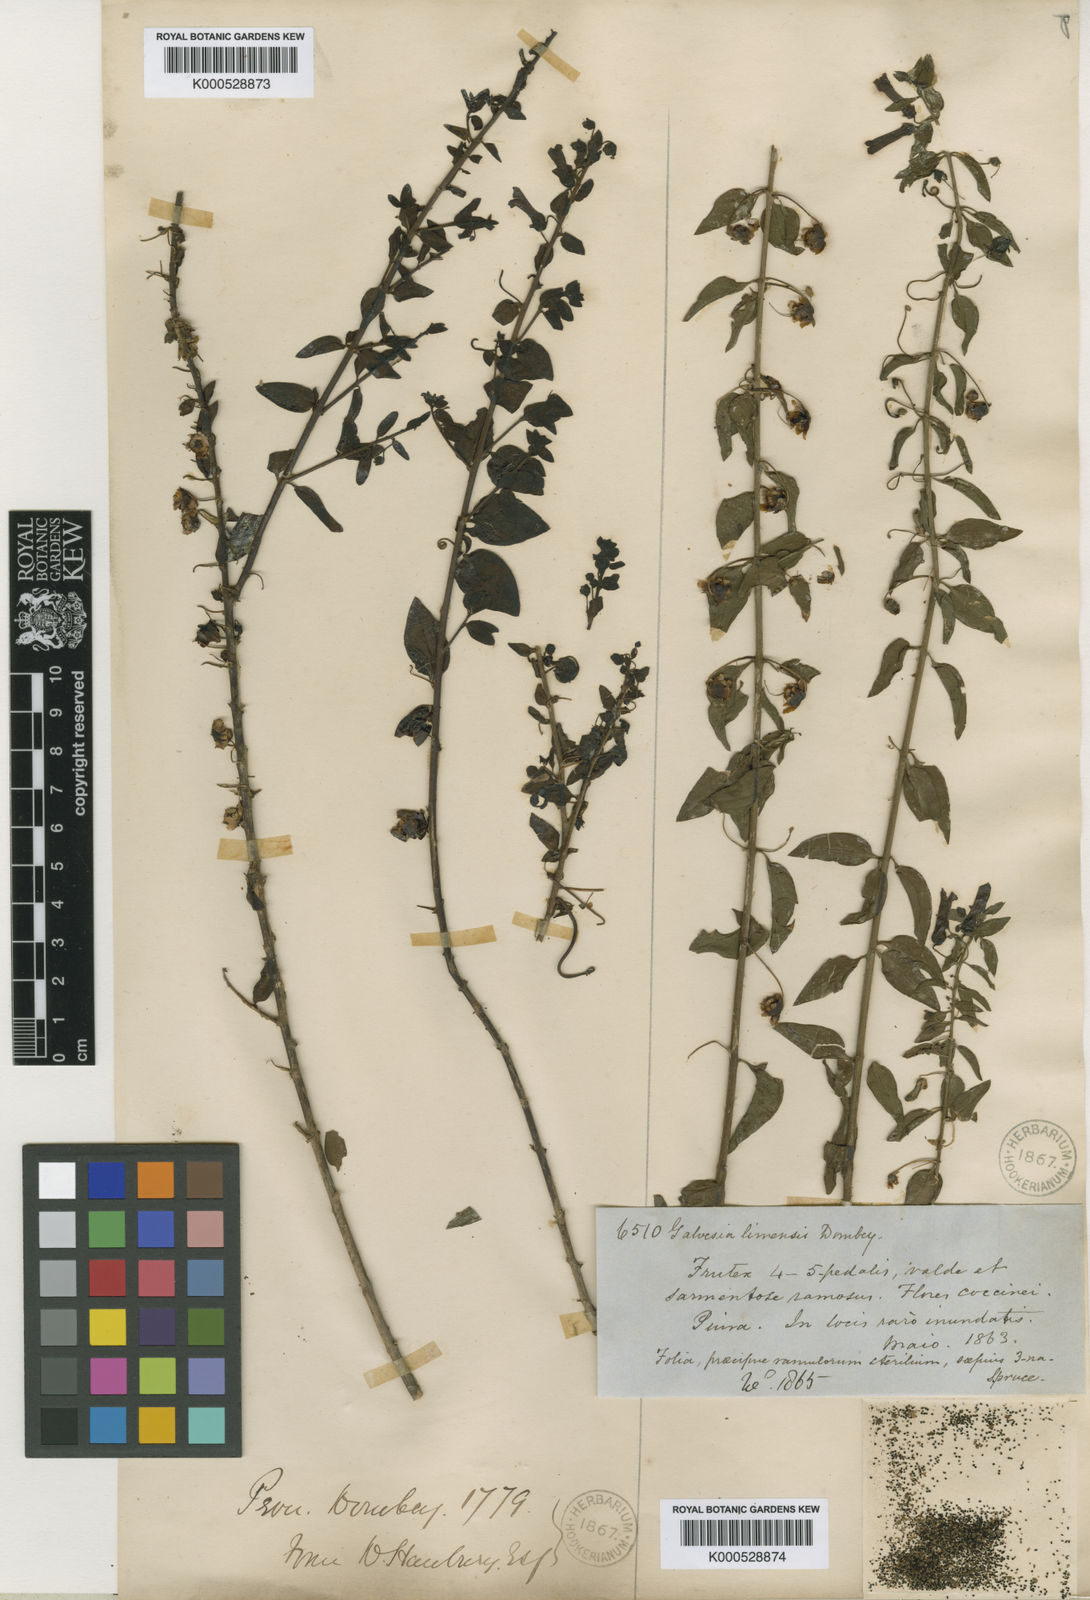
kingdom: Plantae
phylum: Tracheophyta
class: Magnoliopsida
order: Lamiales
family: Plantaginaceae
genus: Galvezia
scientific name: Galvezia fruticosa
